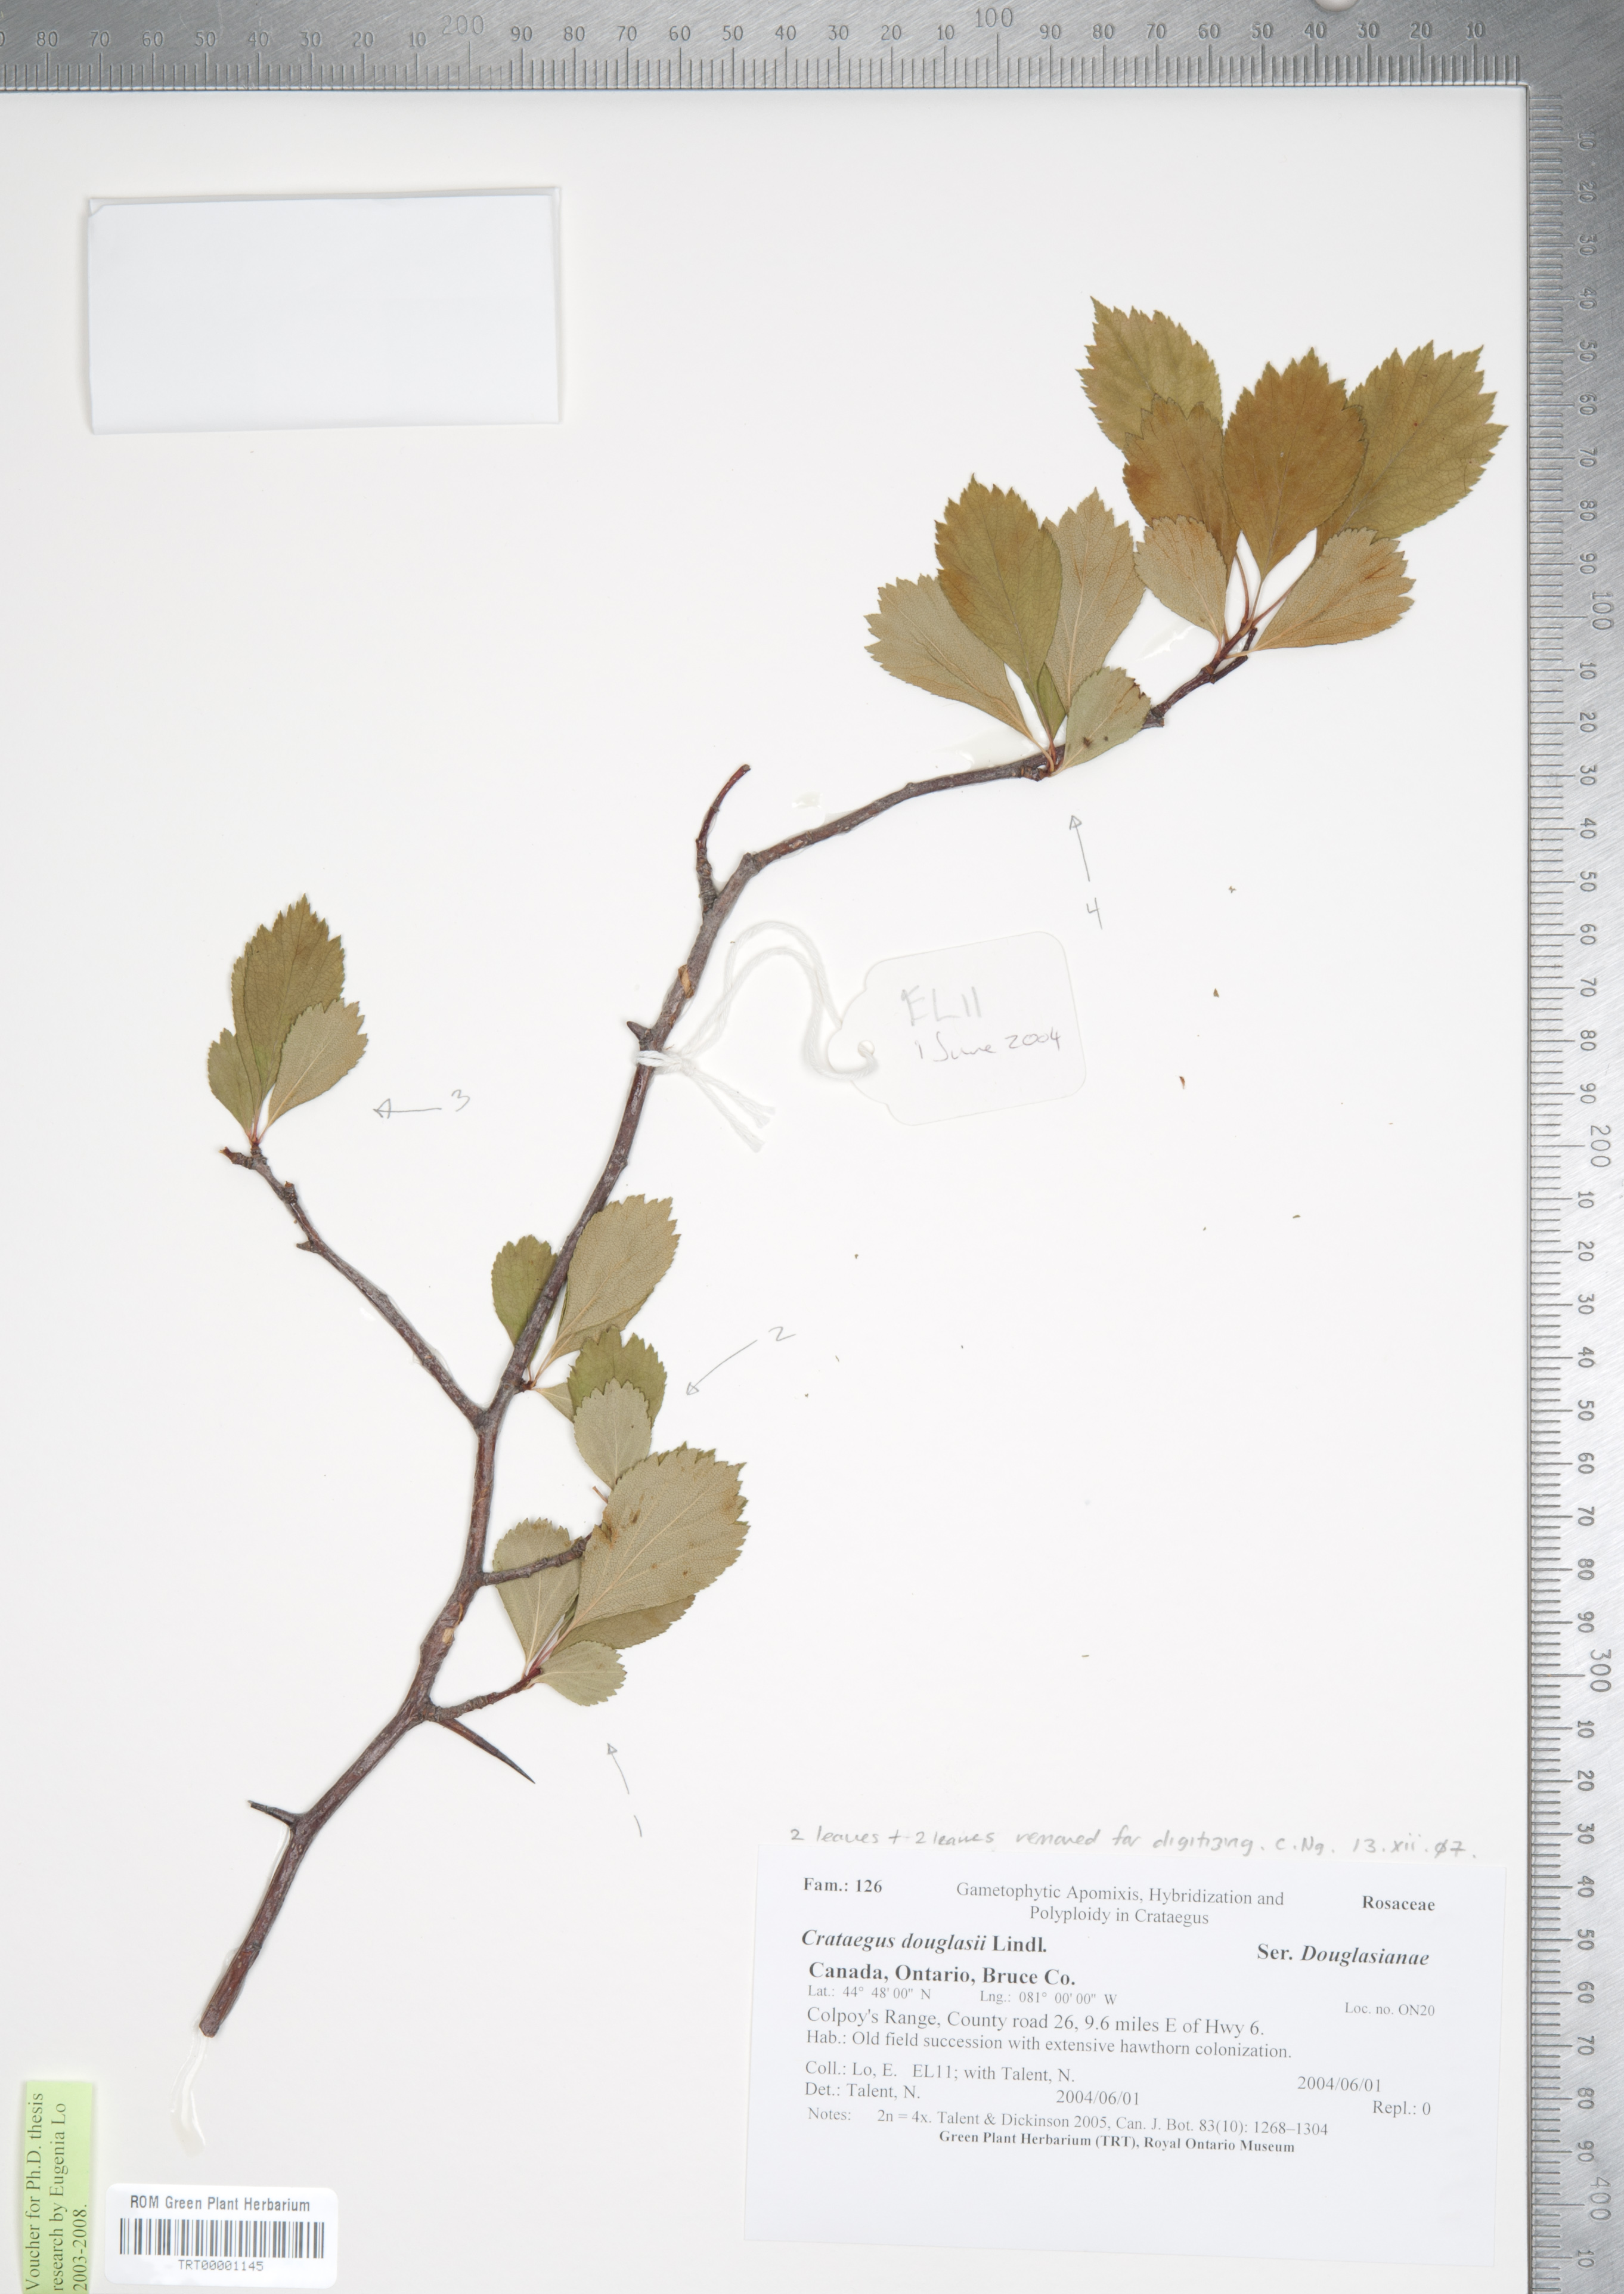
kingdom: Plantae
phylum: Tracheophyta
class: Magnoliopsida
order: Rosales
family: Rosaceae
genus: Crataegus
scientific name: Crataegus douglasii
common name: Black hawthorn
